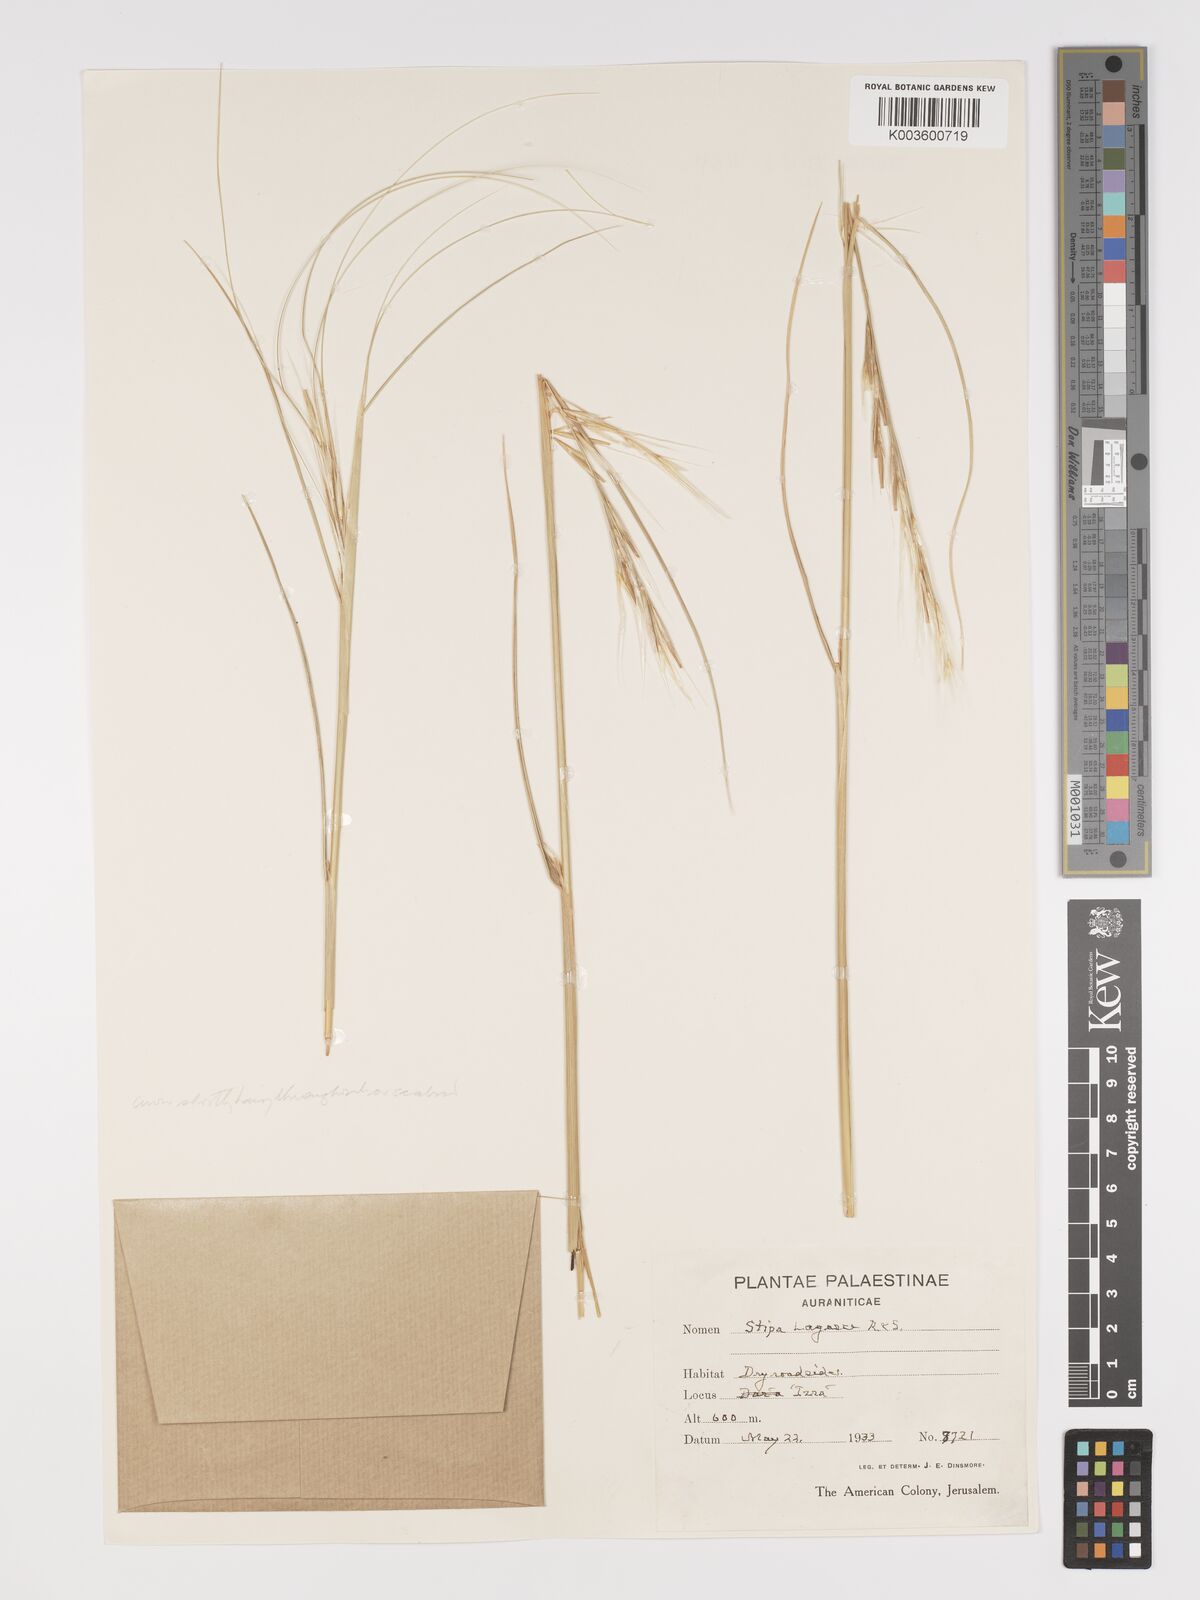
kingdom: Plantae
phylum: Tracheophyta
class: Liliopsida
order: Poales
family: Poaceae
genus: Stipa
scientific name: Stipa holosericea
